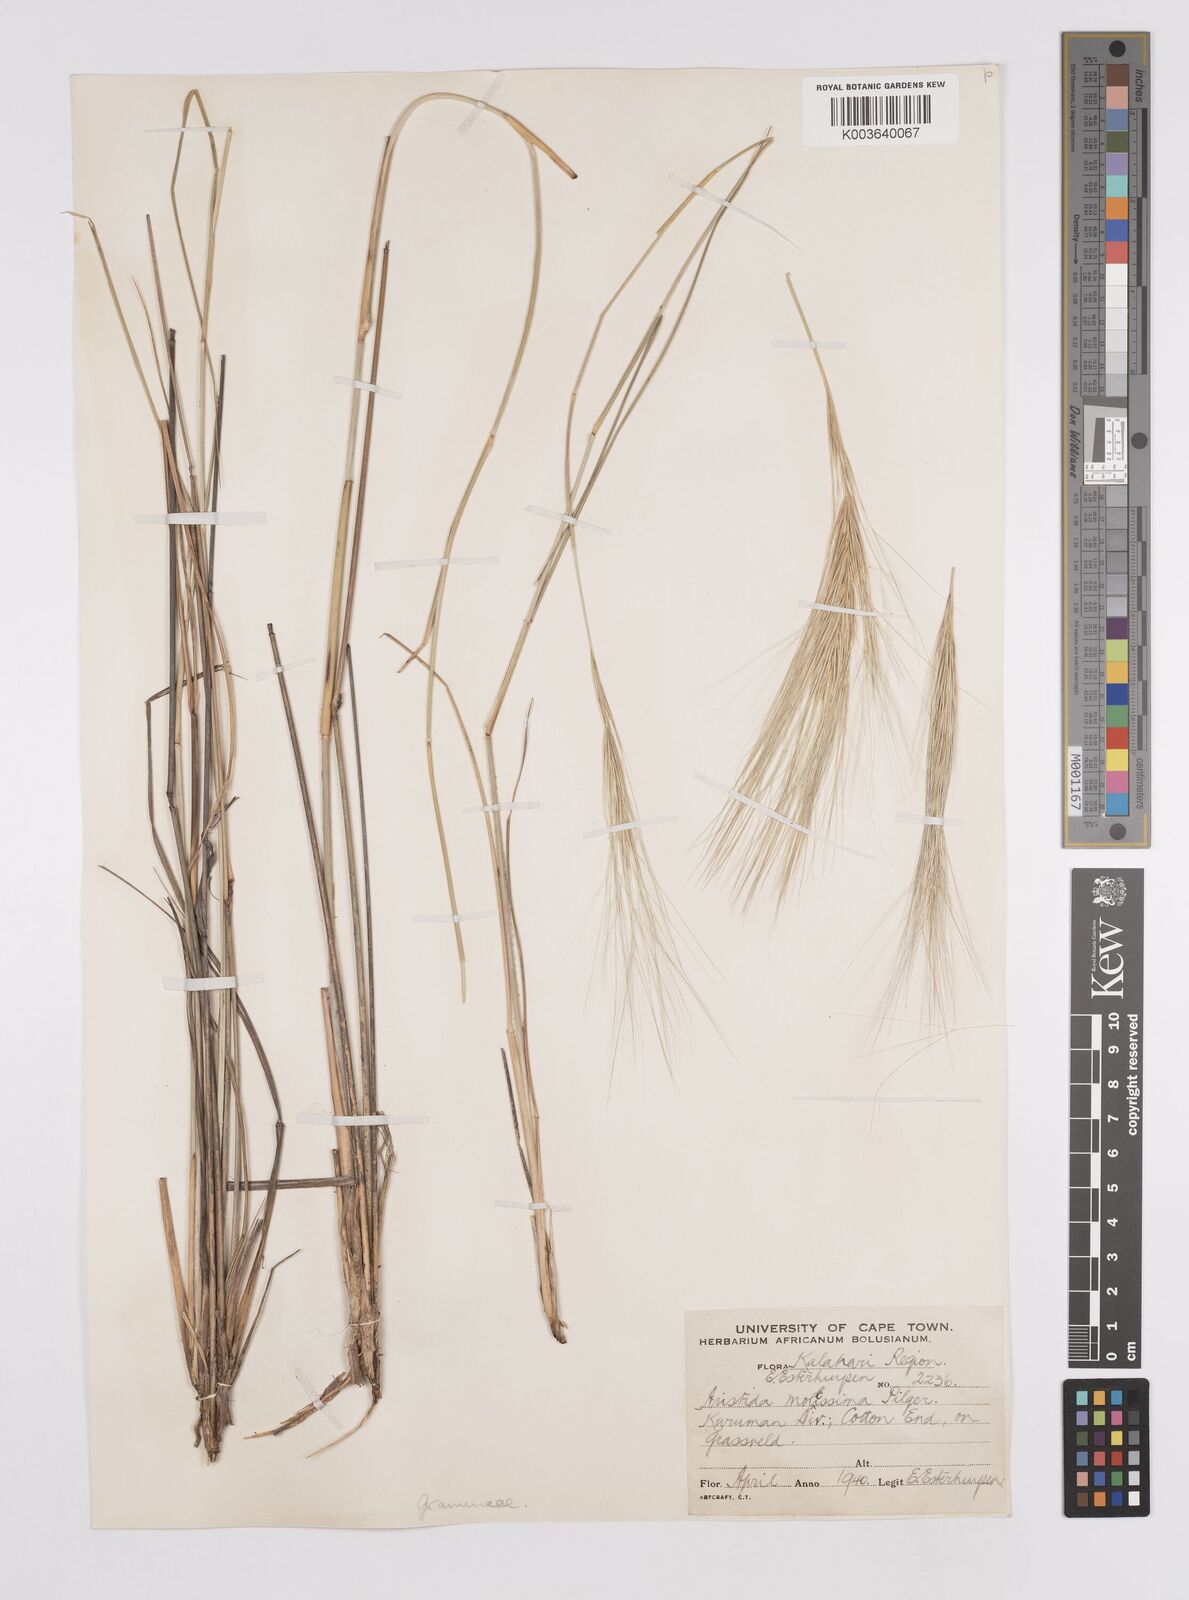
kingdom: Plantae
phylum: Tracheophyta
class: Liliopsida
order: Poales
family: Poaceae
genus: Aristida
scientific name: Aristida mollissima
